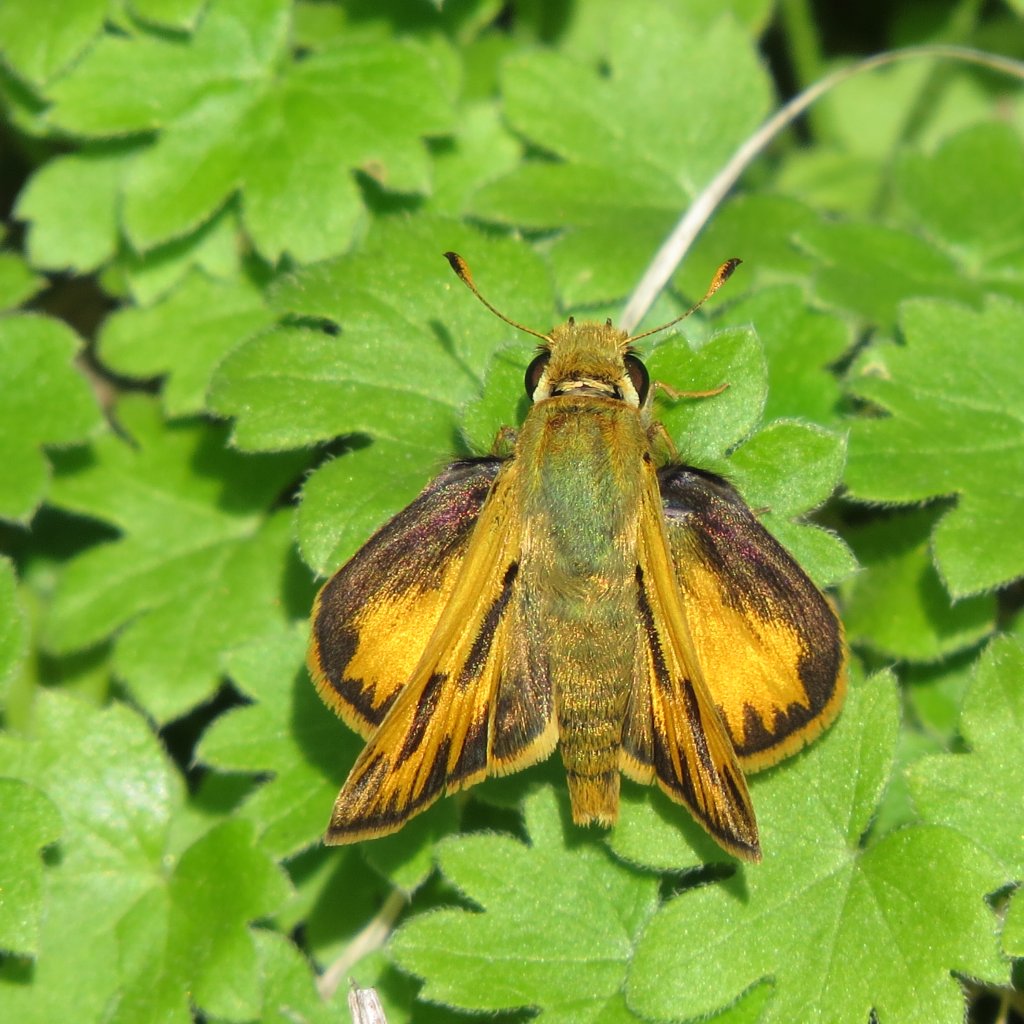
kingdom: Animalia
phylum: Arthropoda
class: Insecta
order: Lepidoptera
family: Hesperiidae
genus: Hylephila
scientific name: Hylephila phyleus
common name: Fiery Skipper
